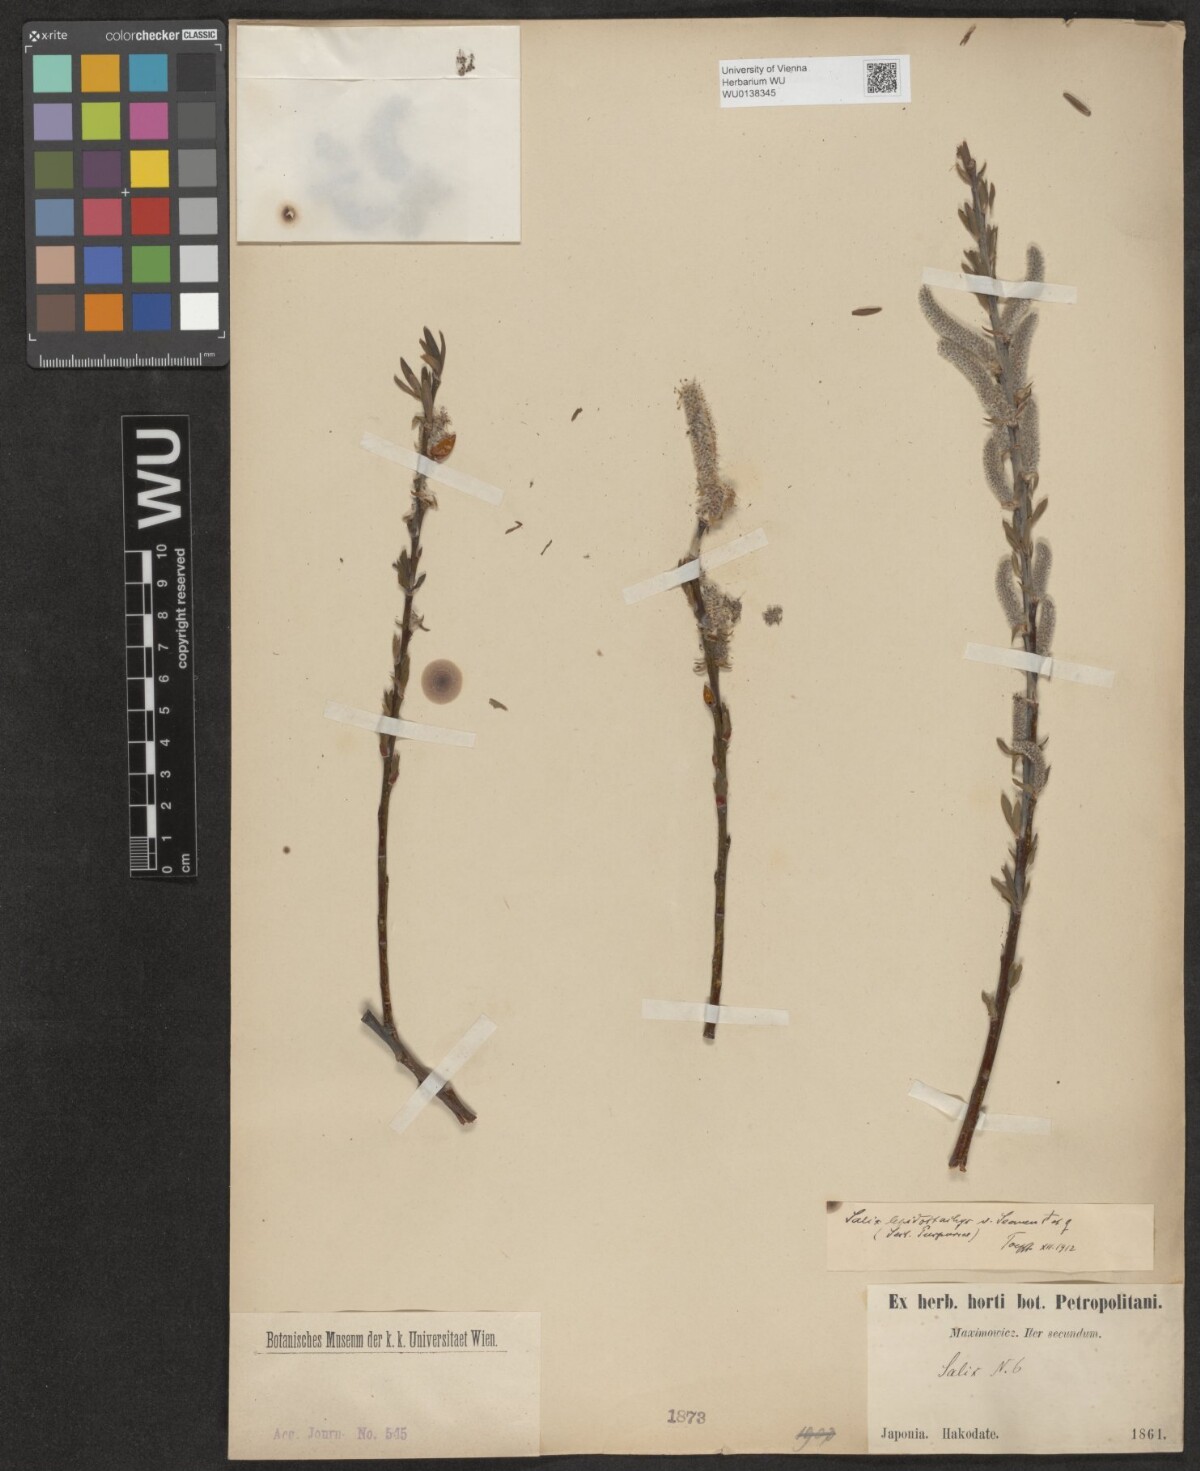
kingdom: Plantae
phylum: Tracheophyta
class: Magnoliopsida
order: Malpighiales
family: Salicaceae
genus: Salix
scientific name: Salix miyabeana
